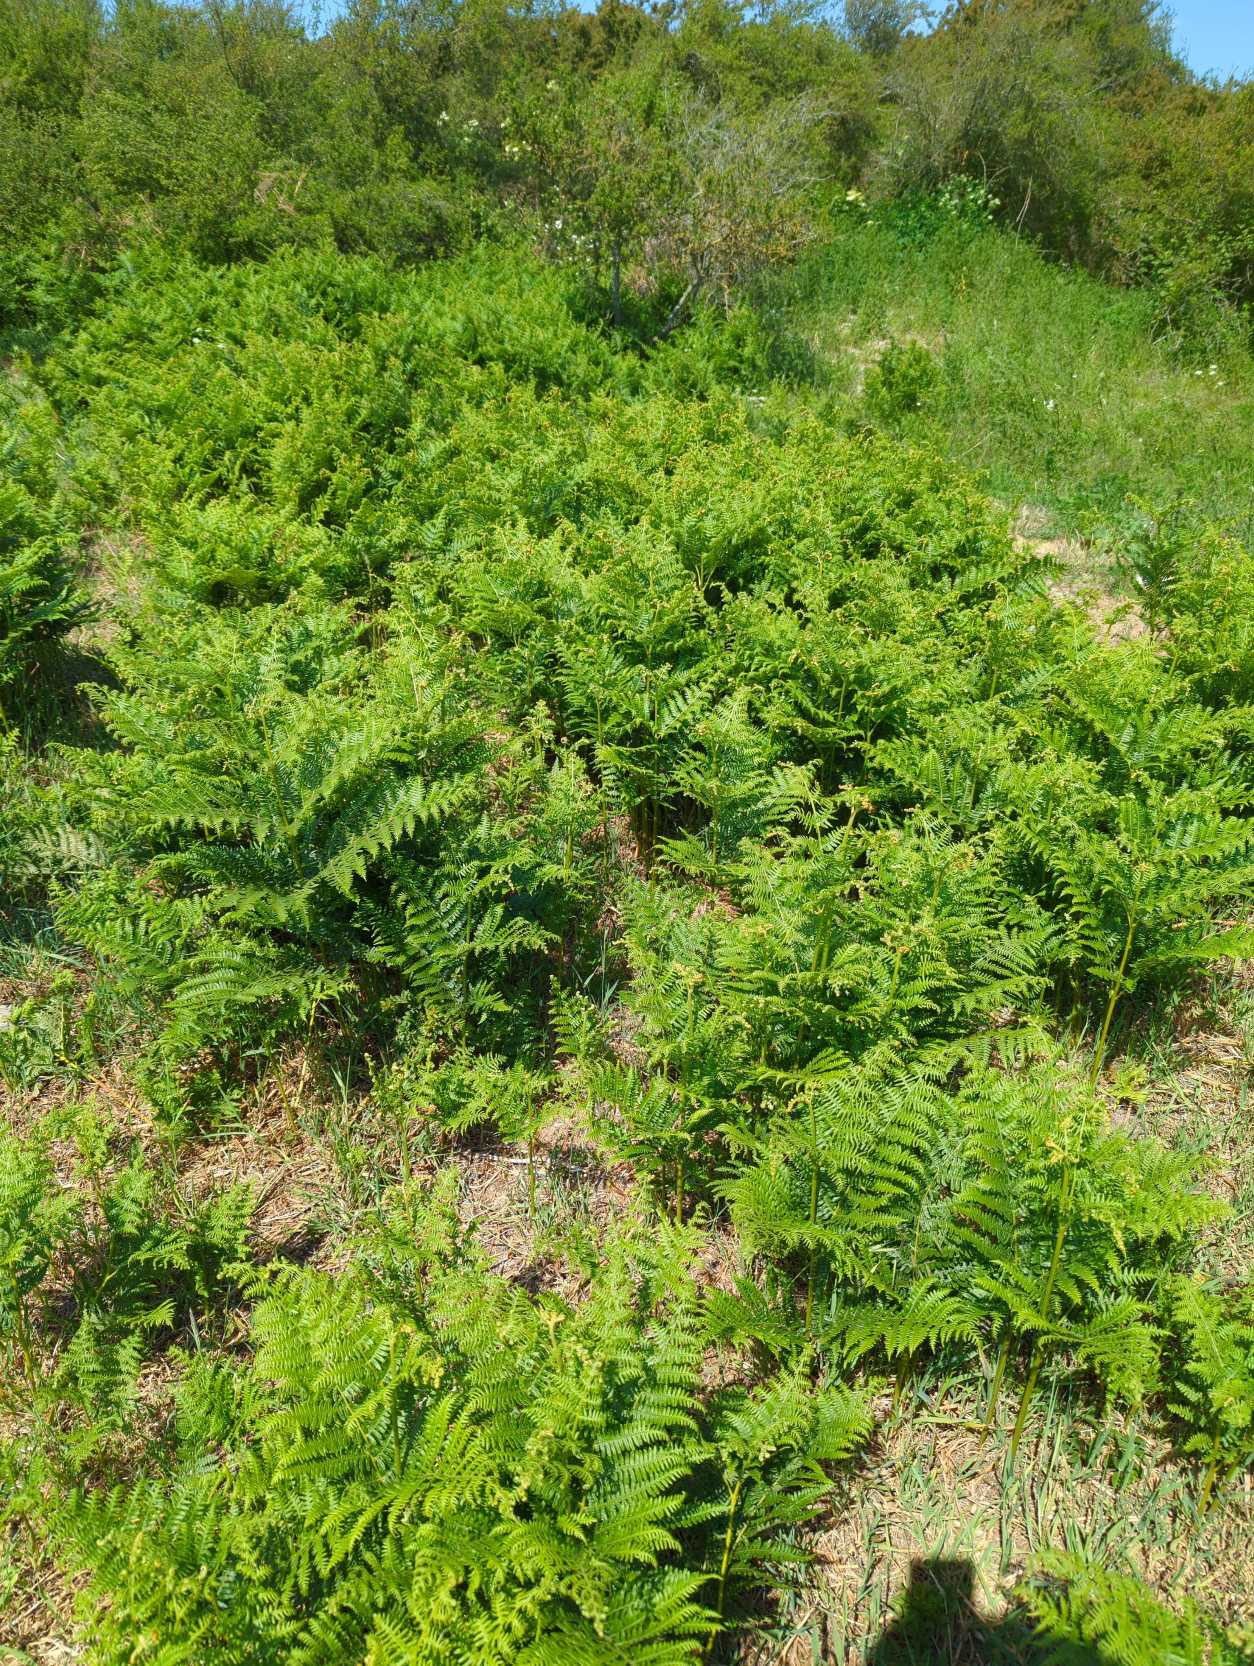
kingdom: Plantae
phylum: Tracheophyta
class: Polypodiopsida
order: Polypodiales
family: Dennstaedtiaceae
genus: Pteridium
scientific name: Pteridium aquilinum
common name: Ørnebregne
